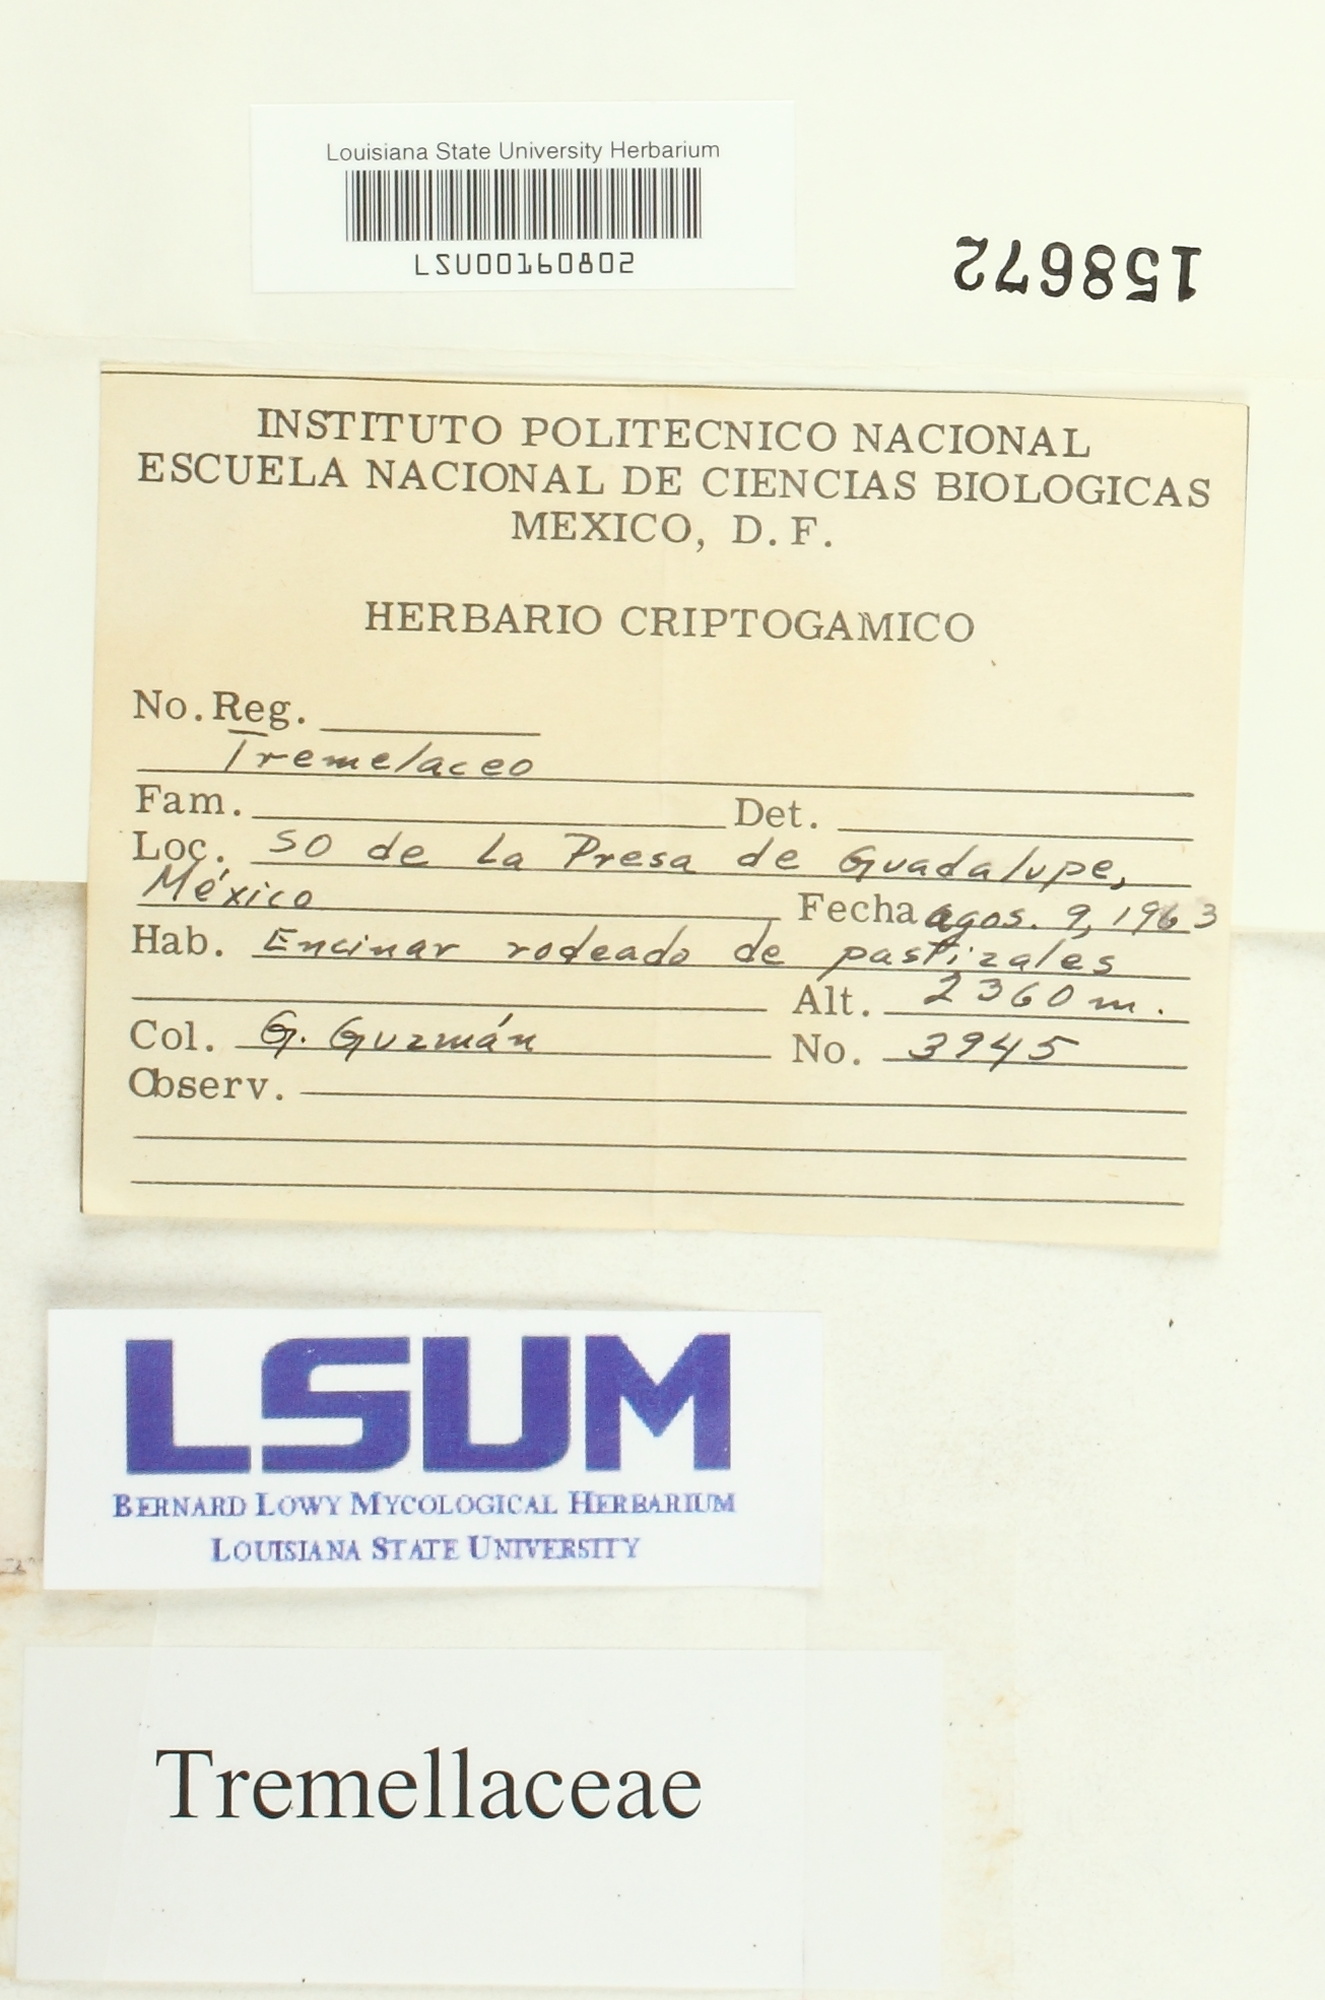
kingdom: Fungi
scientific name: Fungi
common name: Fungi
